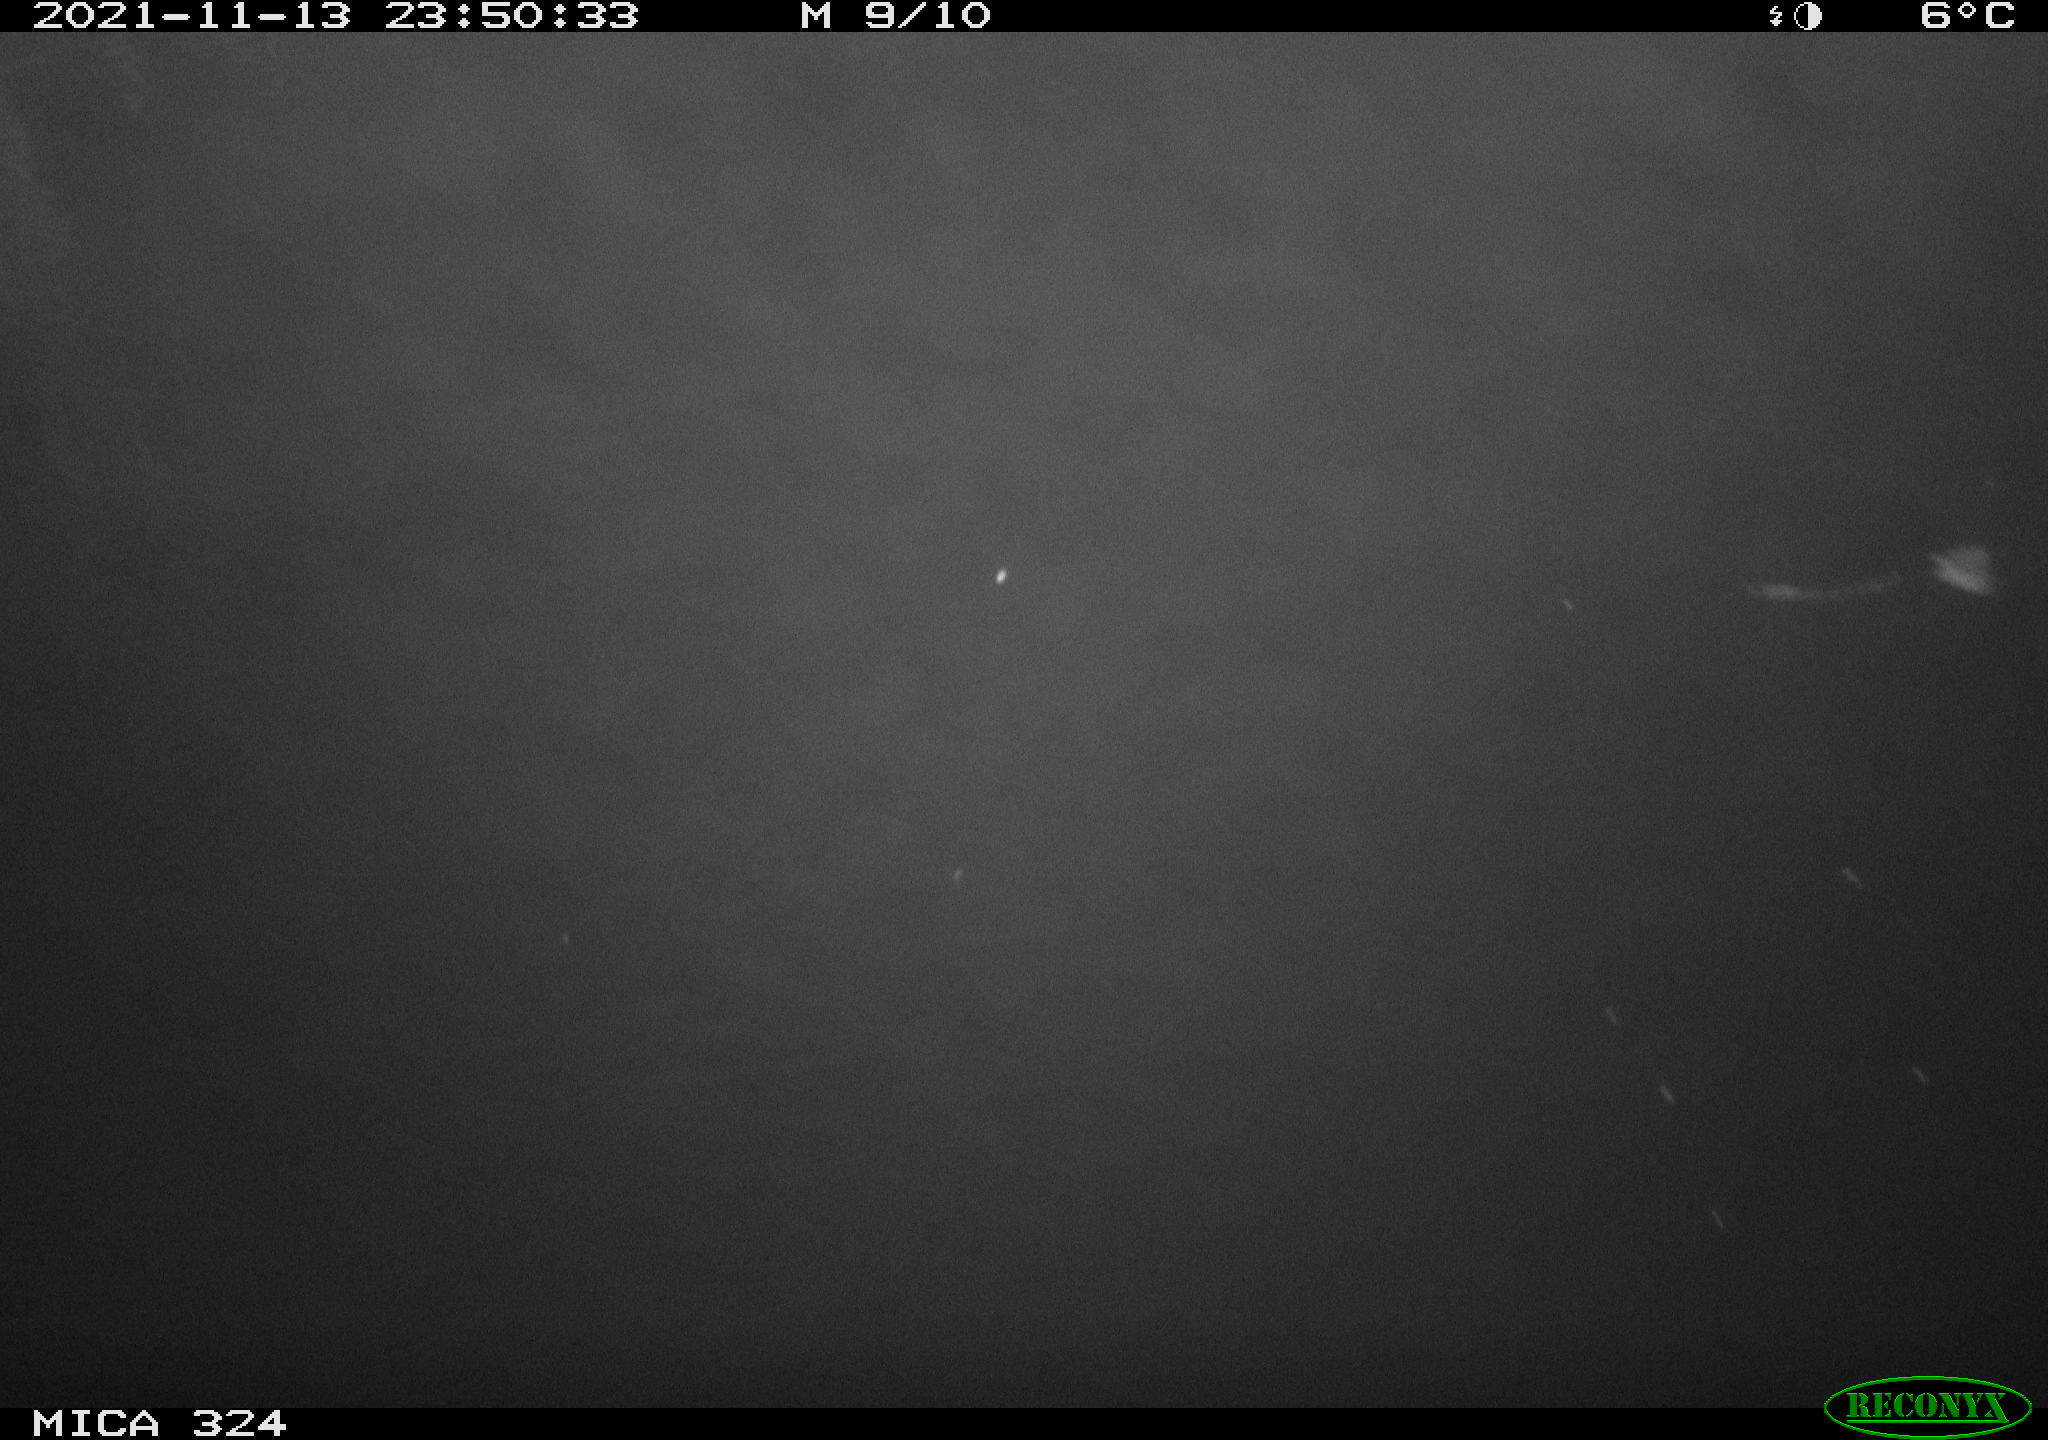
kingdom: Animalia
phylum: Chordata
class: Mammalia
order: Rodentia
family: Cricetidae
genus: Ondatra
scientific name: Ondatra zibethicus
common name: Muskrat
